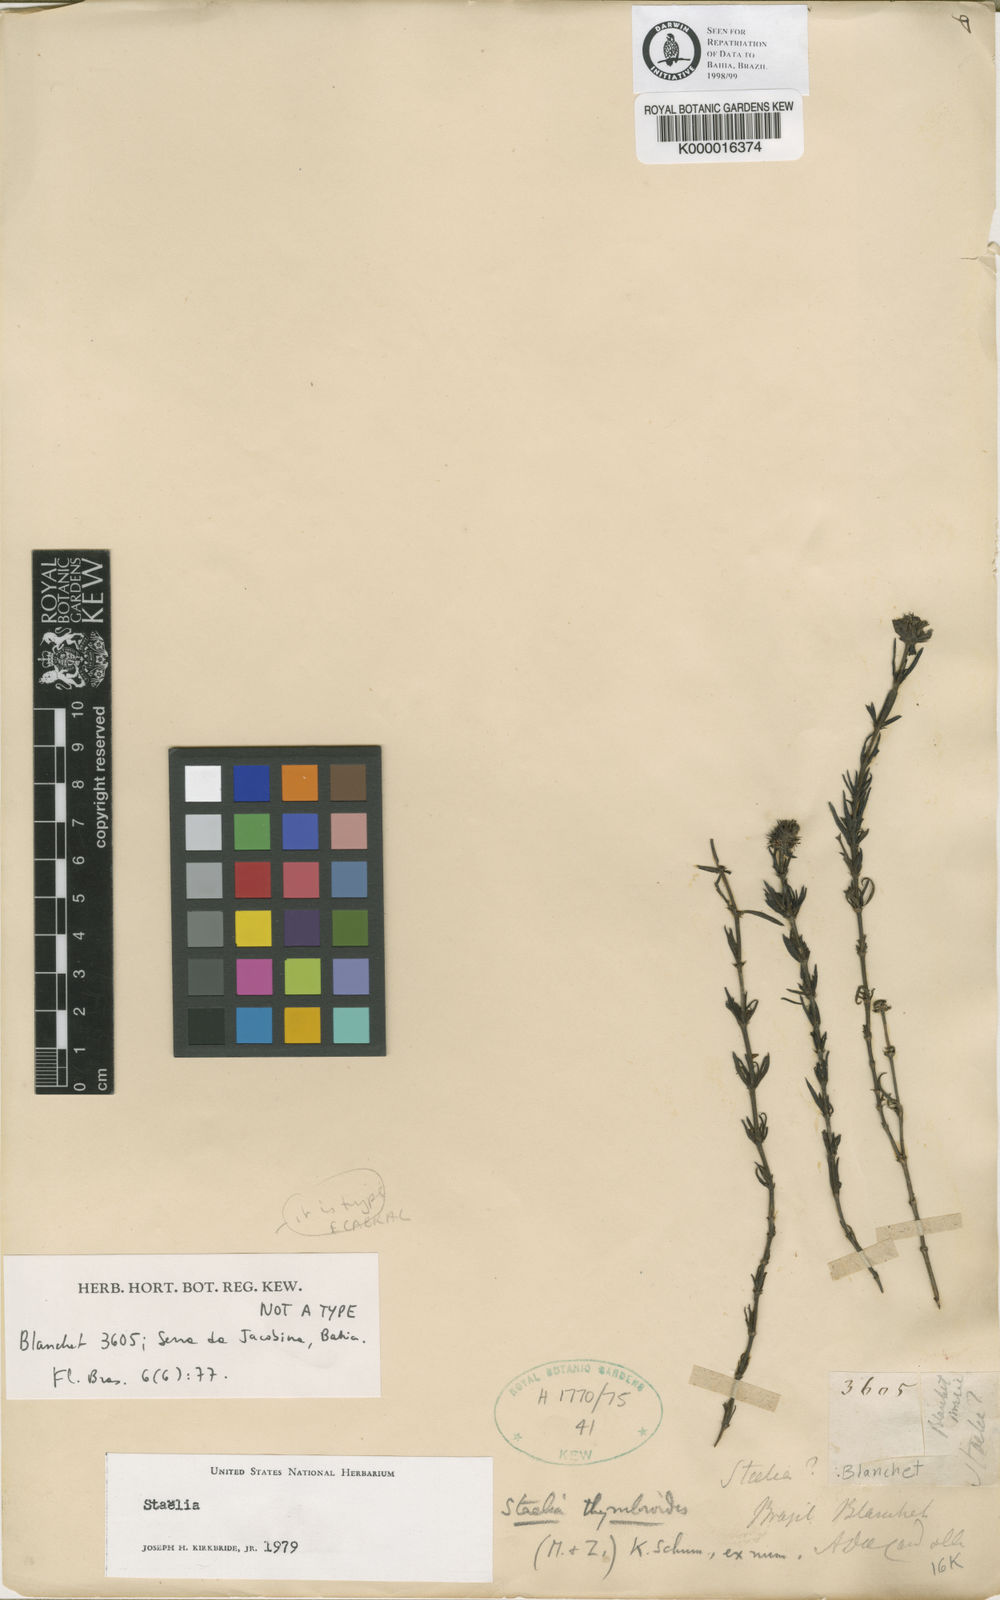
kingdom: Plantae
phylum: Tracheophyta
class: Magnoliopsida
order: Gentianales
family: Rubiaceae
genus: Staelia
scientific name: Staelia
